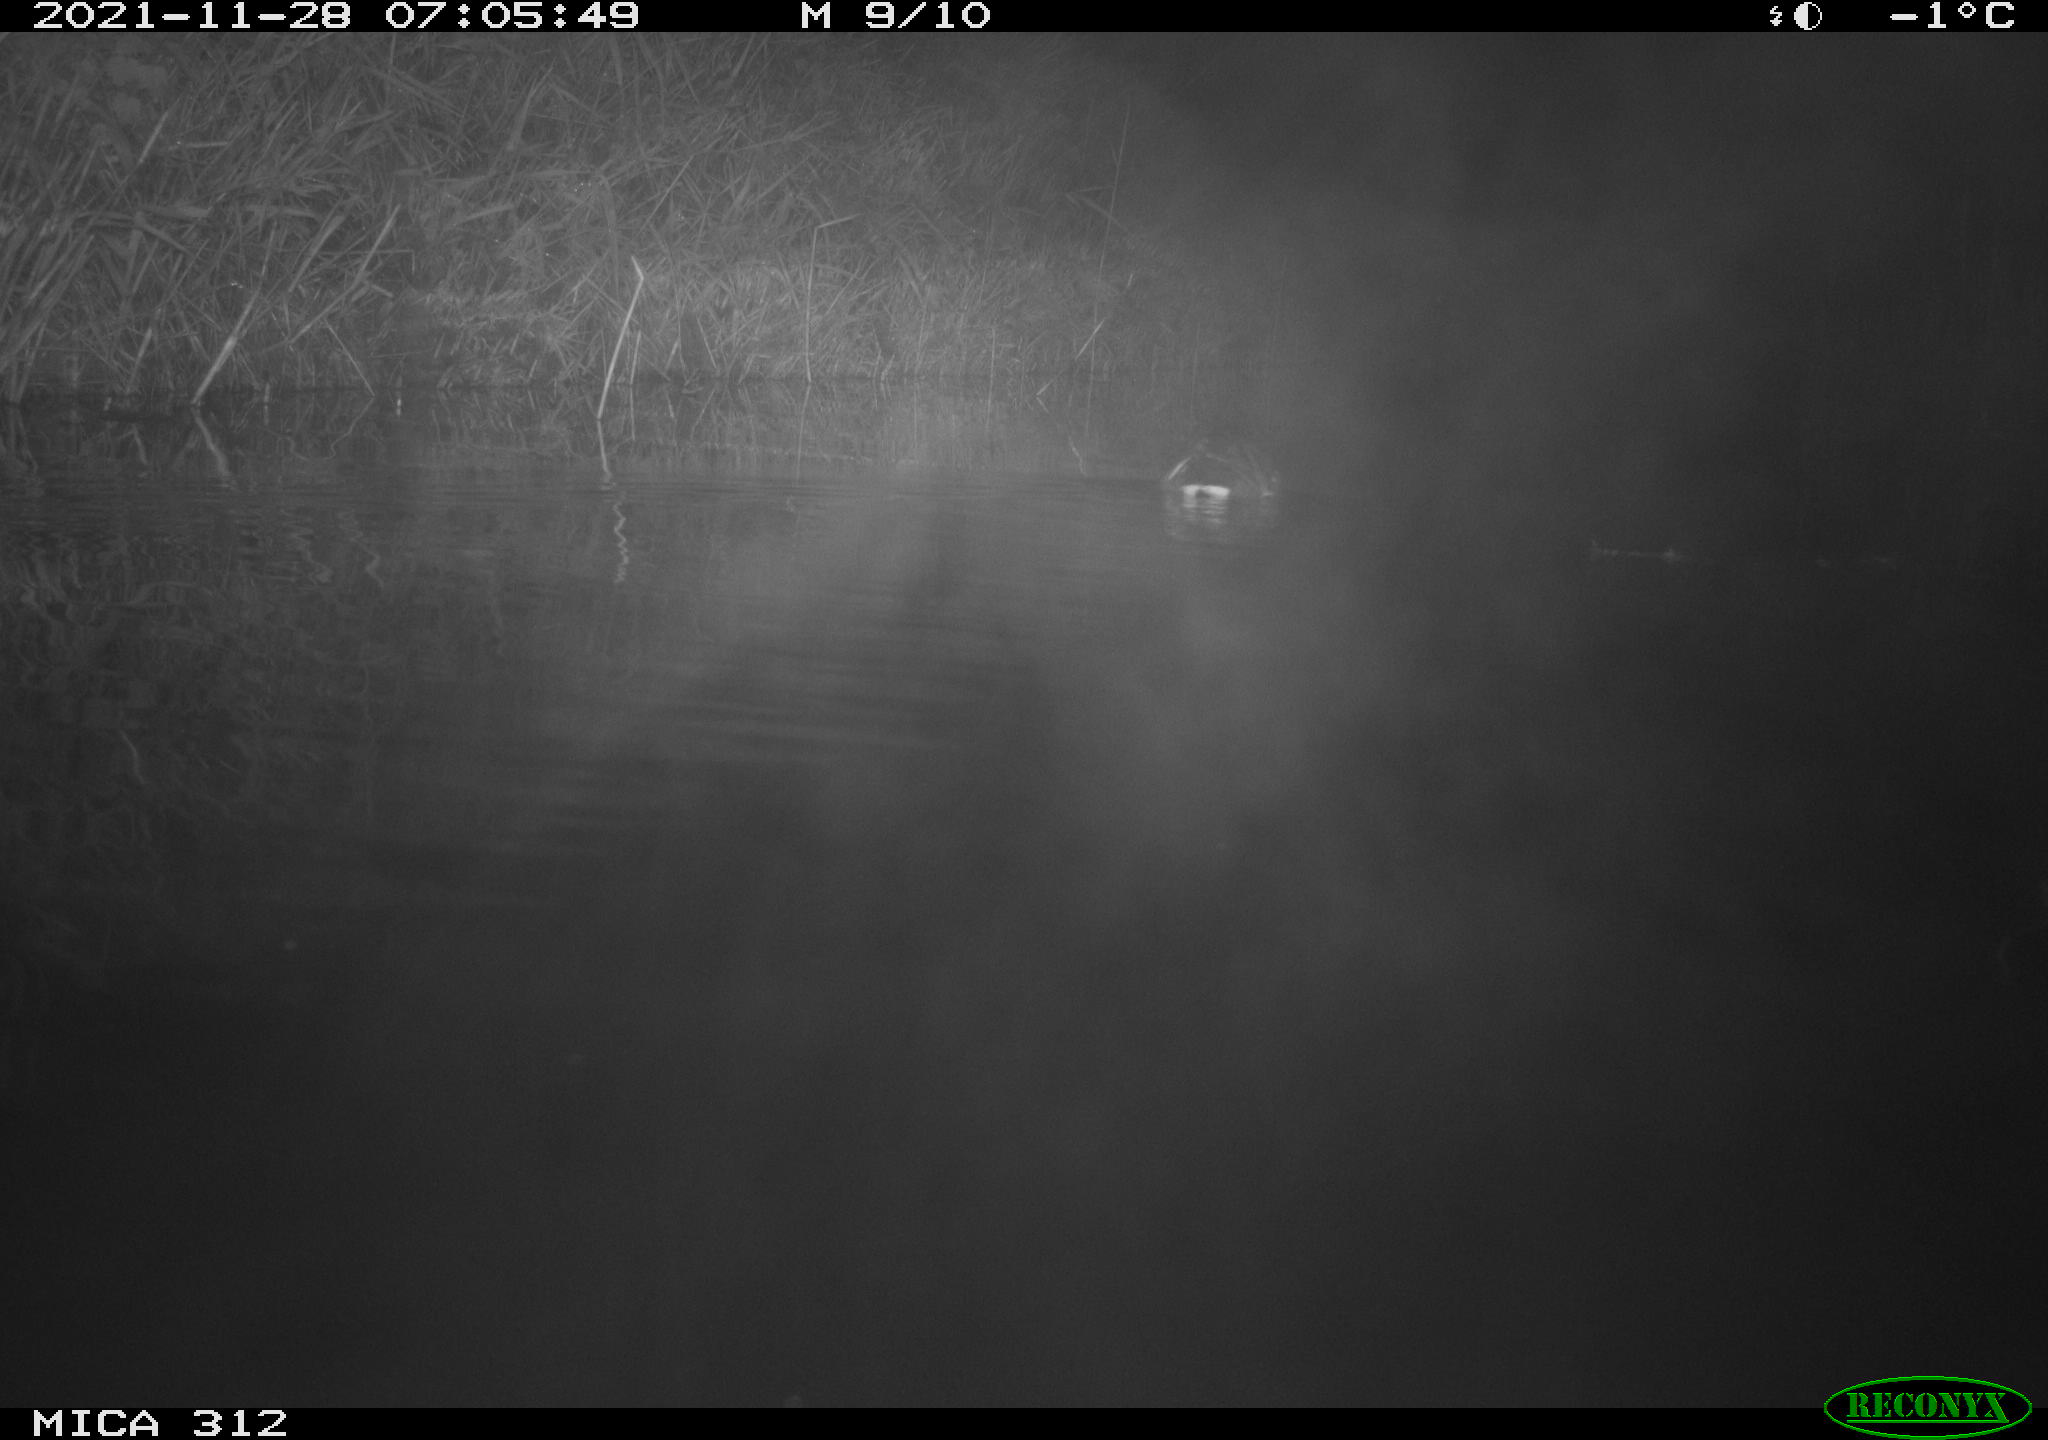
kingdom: Animalia
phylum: Chordata
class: Aves
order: Anseriformes
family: Anatidae
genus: Anas
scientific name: Anas
